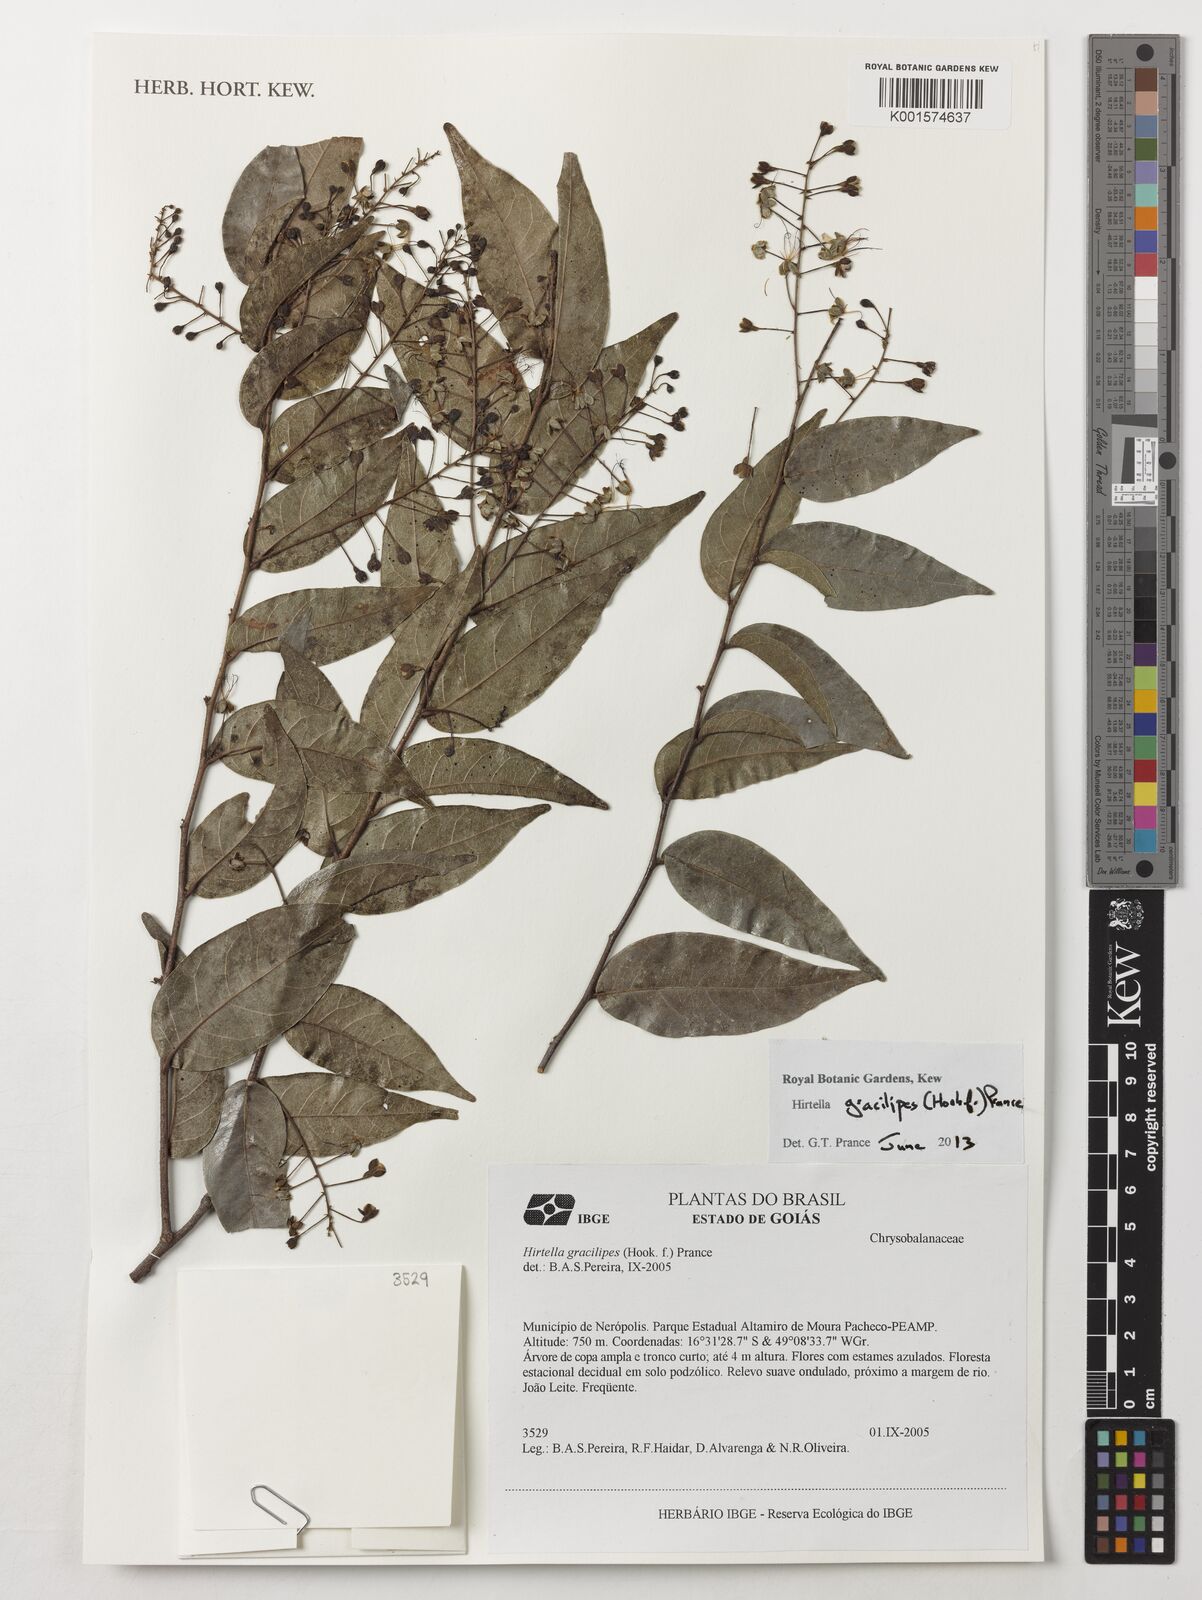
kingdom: Plantae
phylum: Tracheophyta
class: Magnoliopsida
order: Malpighiales
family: Chrysobalanaceae
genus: Hirtella
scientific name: Hirtella gracilipes
